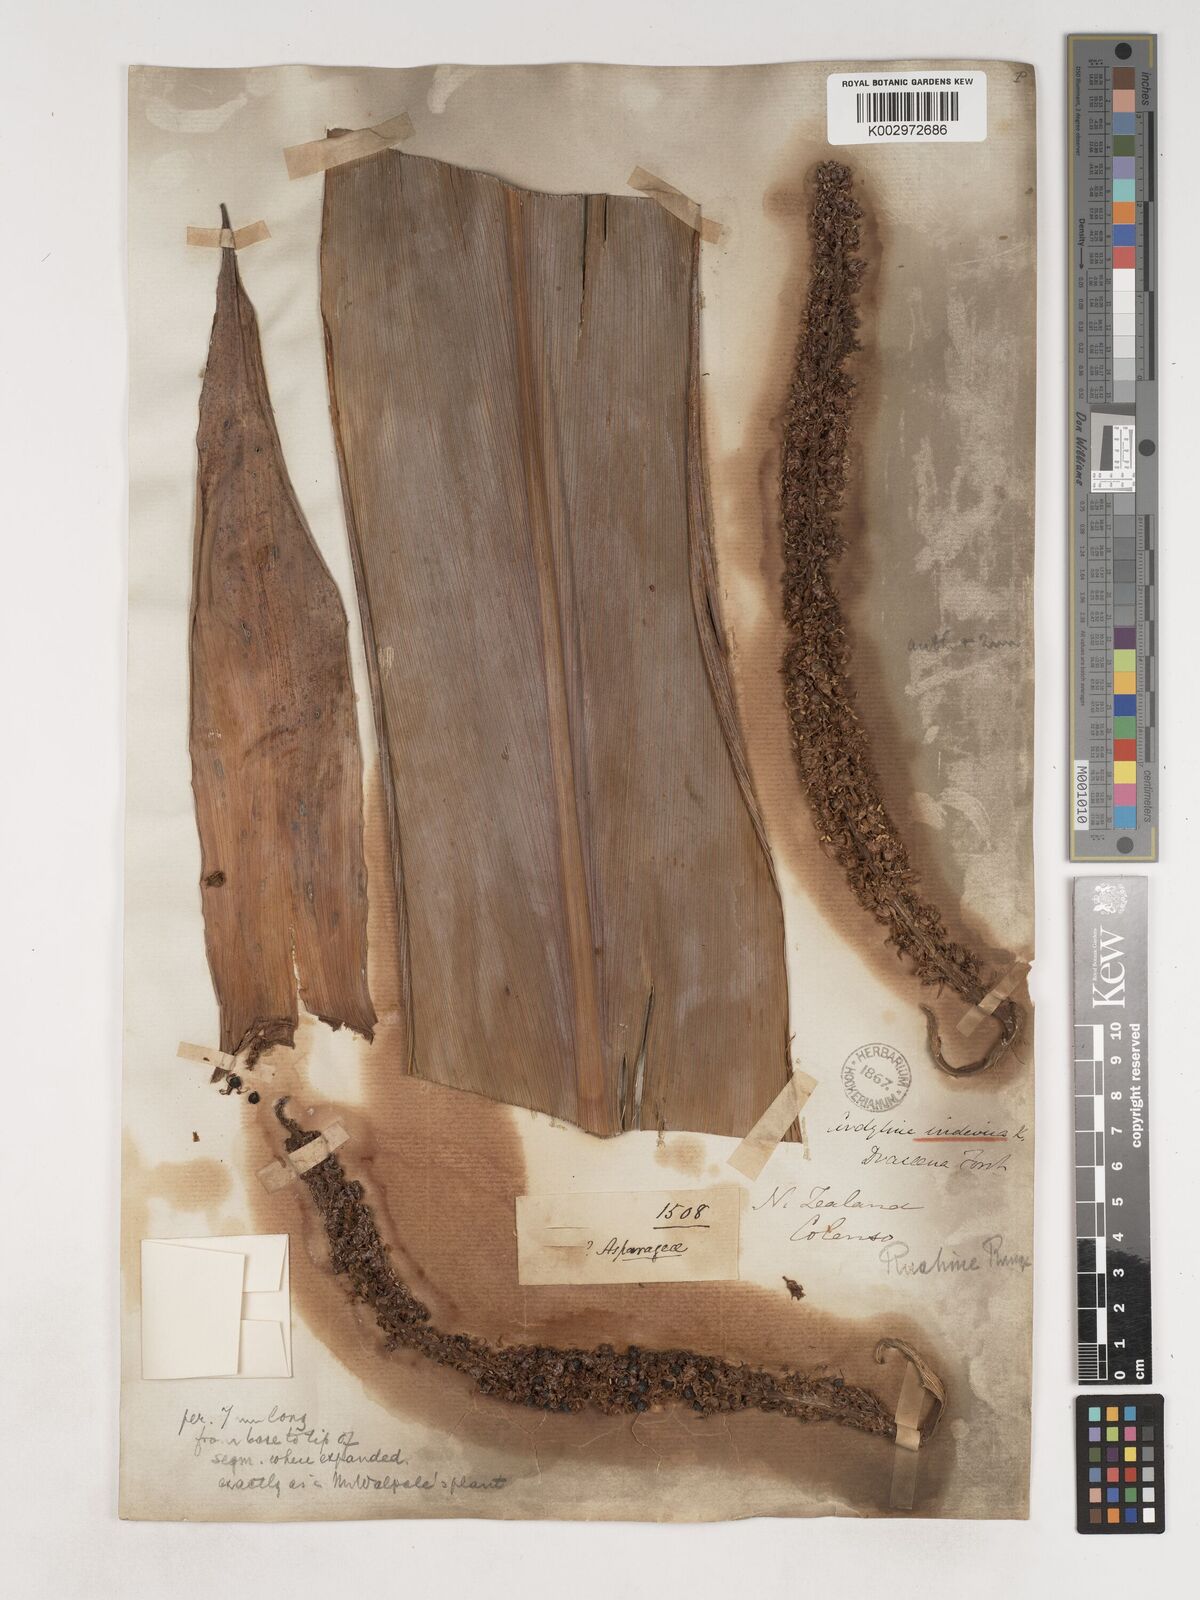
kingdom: Plantae
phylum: Tracheophyta
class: Liliopsida
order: Asparagales
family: Asparagaceae
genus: Cordyline
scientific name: Cordyline
